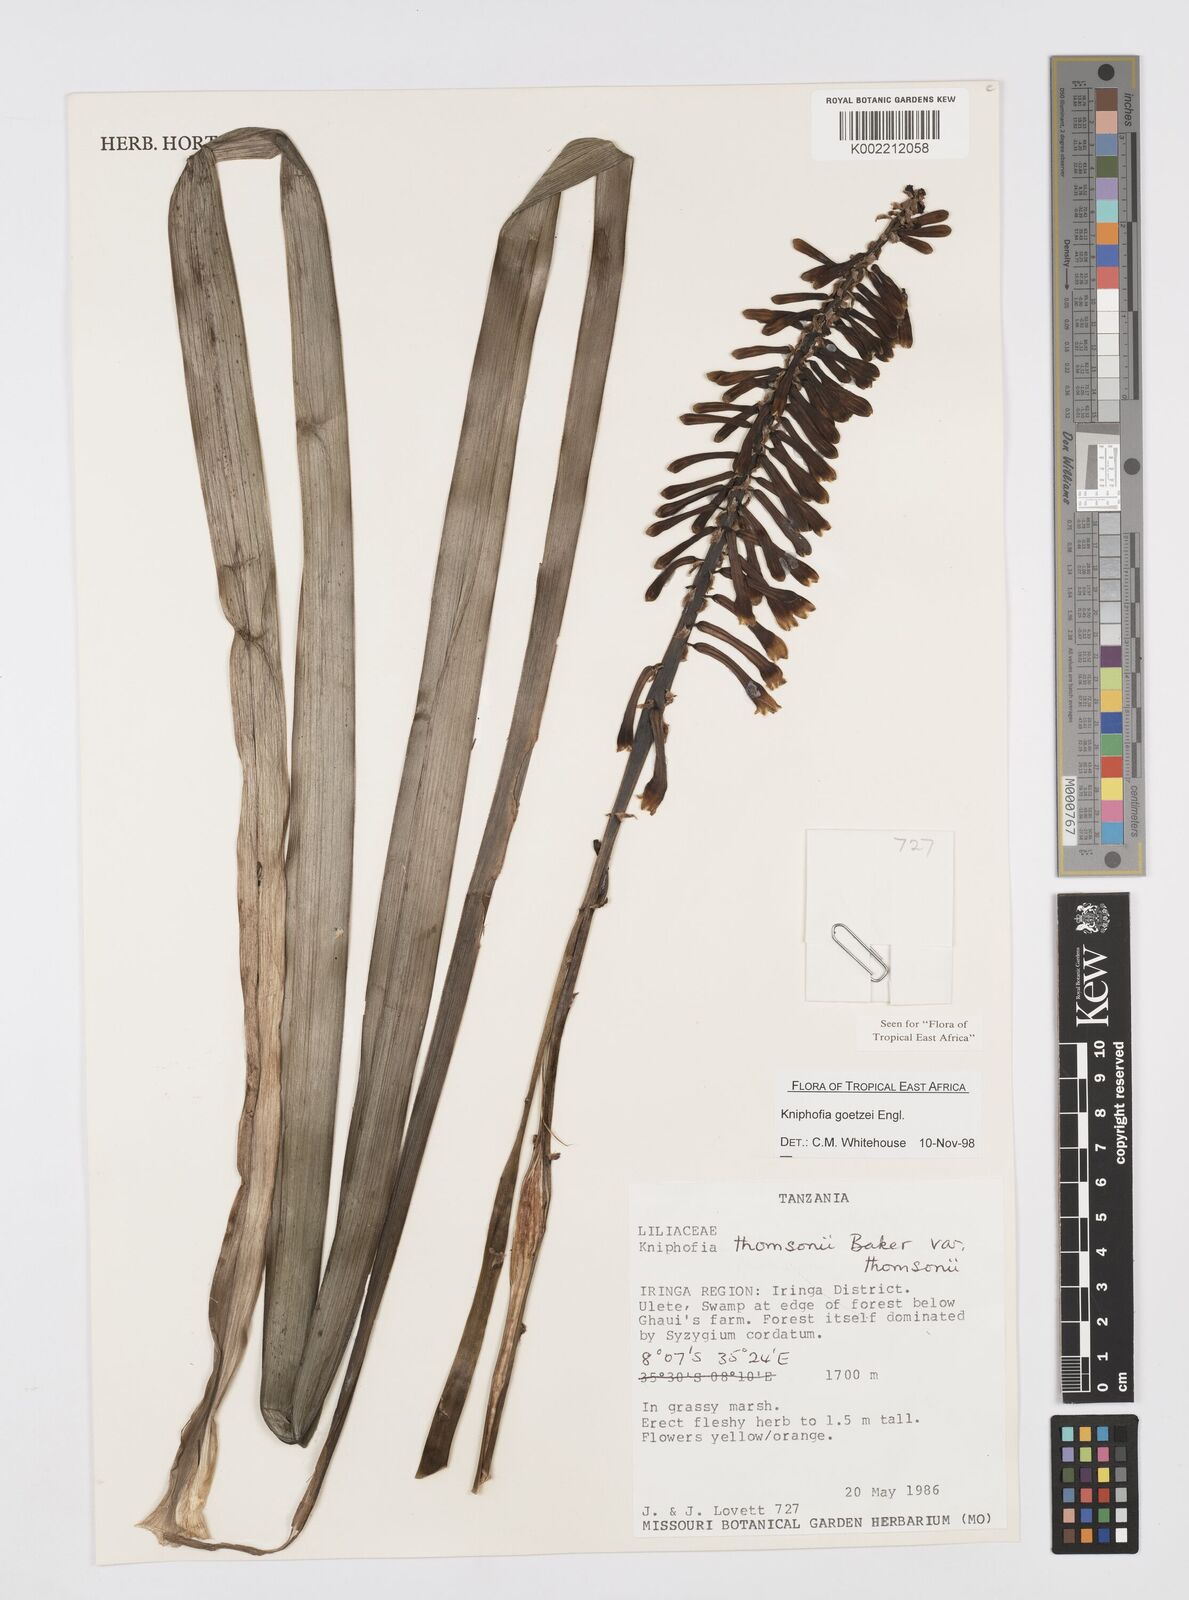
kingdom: Plantae
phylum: Tracheophyta
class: Liliopsida
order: Asparagales
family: Asphodelaceae
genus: Kniphofia
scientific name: Kniphofia goetzei
